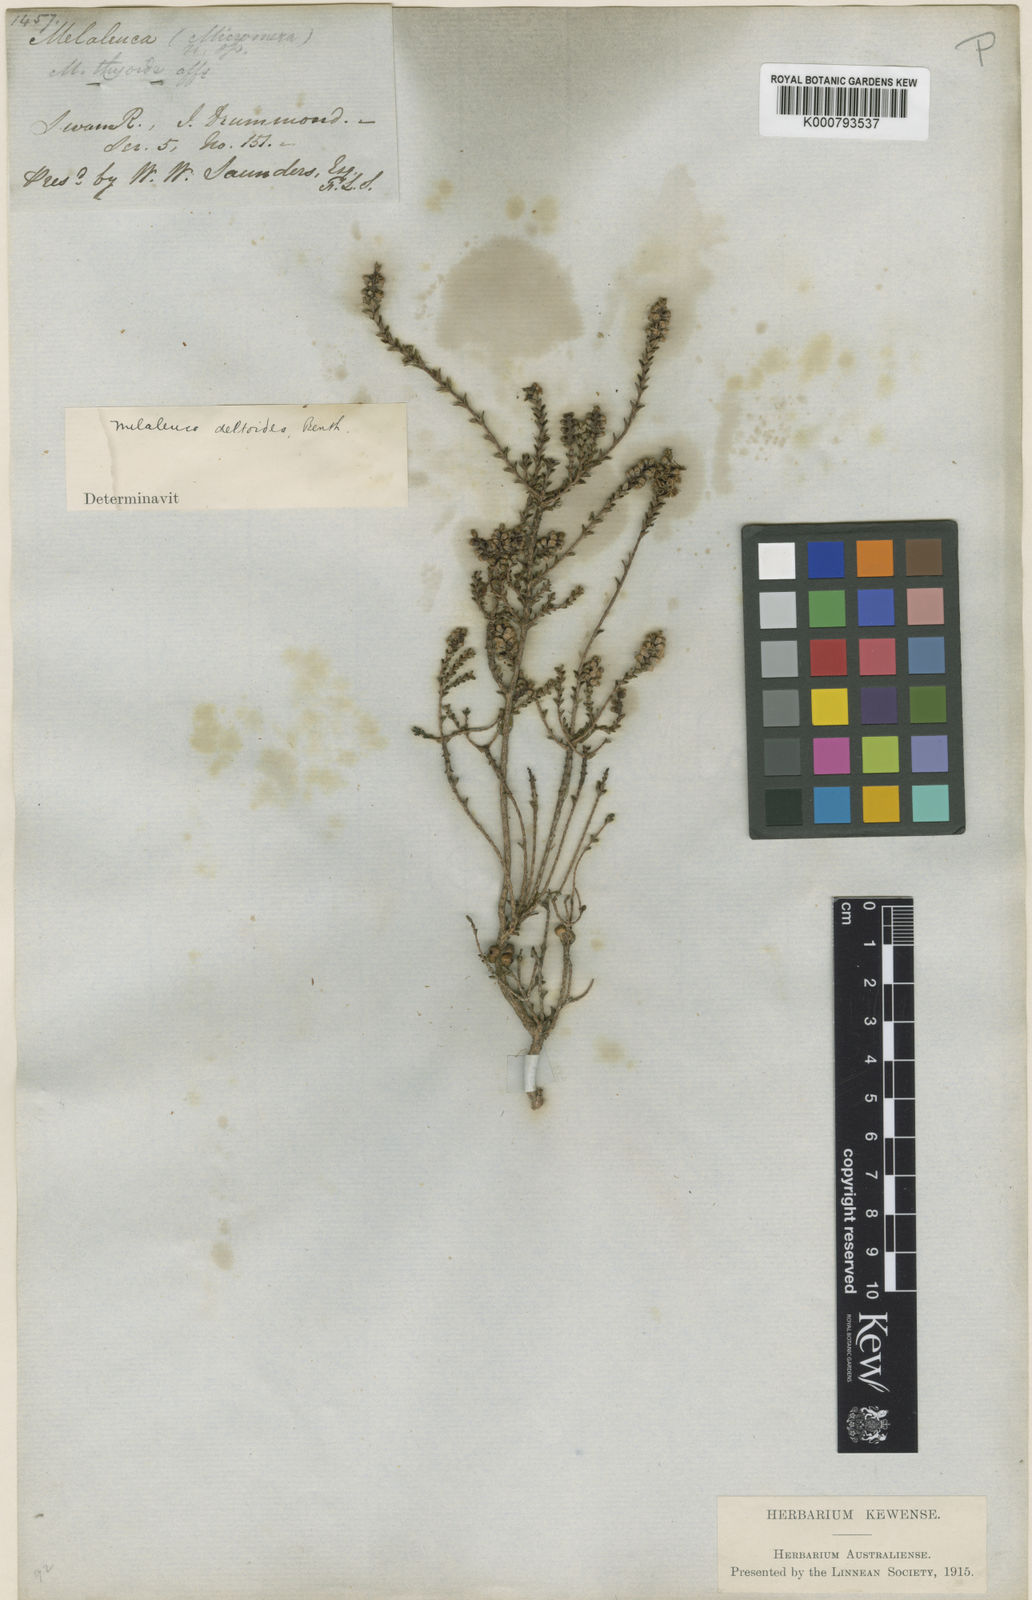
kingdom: Plantae
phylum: Tracheophyta
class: Magnoliopsida
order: Myrtales
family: Myrtaceae
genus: Melaleuca
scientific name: Melaleuca cucullata
